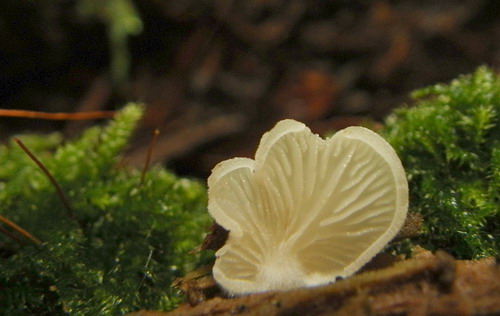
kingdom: Fungi
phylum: Basidiomycota
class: Agaricomycetes
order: Agaricales
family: Crepidotaceae
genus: Crepidotus
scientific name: Crepidotus stenocystis
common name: nåletræs-muslingesvamp
